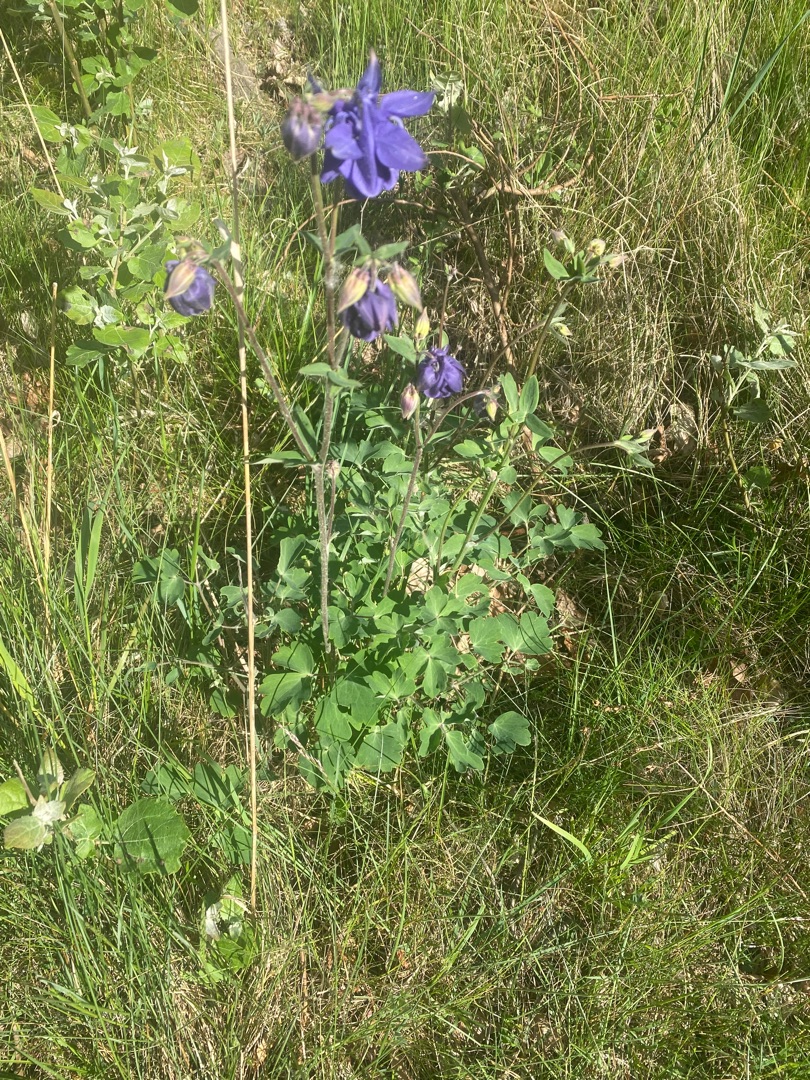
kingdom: Plantae
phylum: Tracheophyta
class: Magnoliopsida
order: Ranunculales
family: Ranunculaceae
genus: Aquilegia
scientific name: Aquilegia vulgaris
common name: Akeleje
